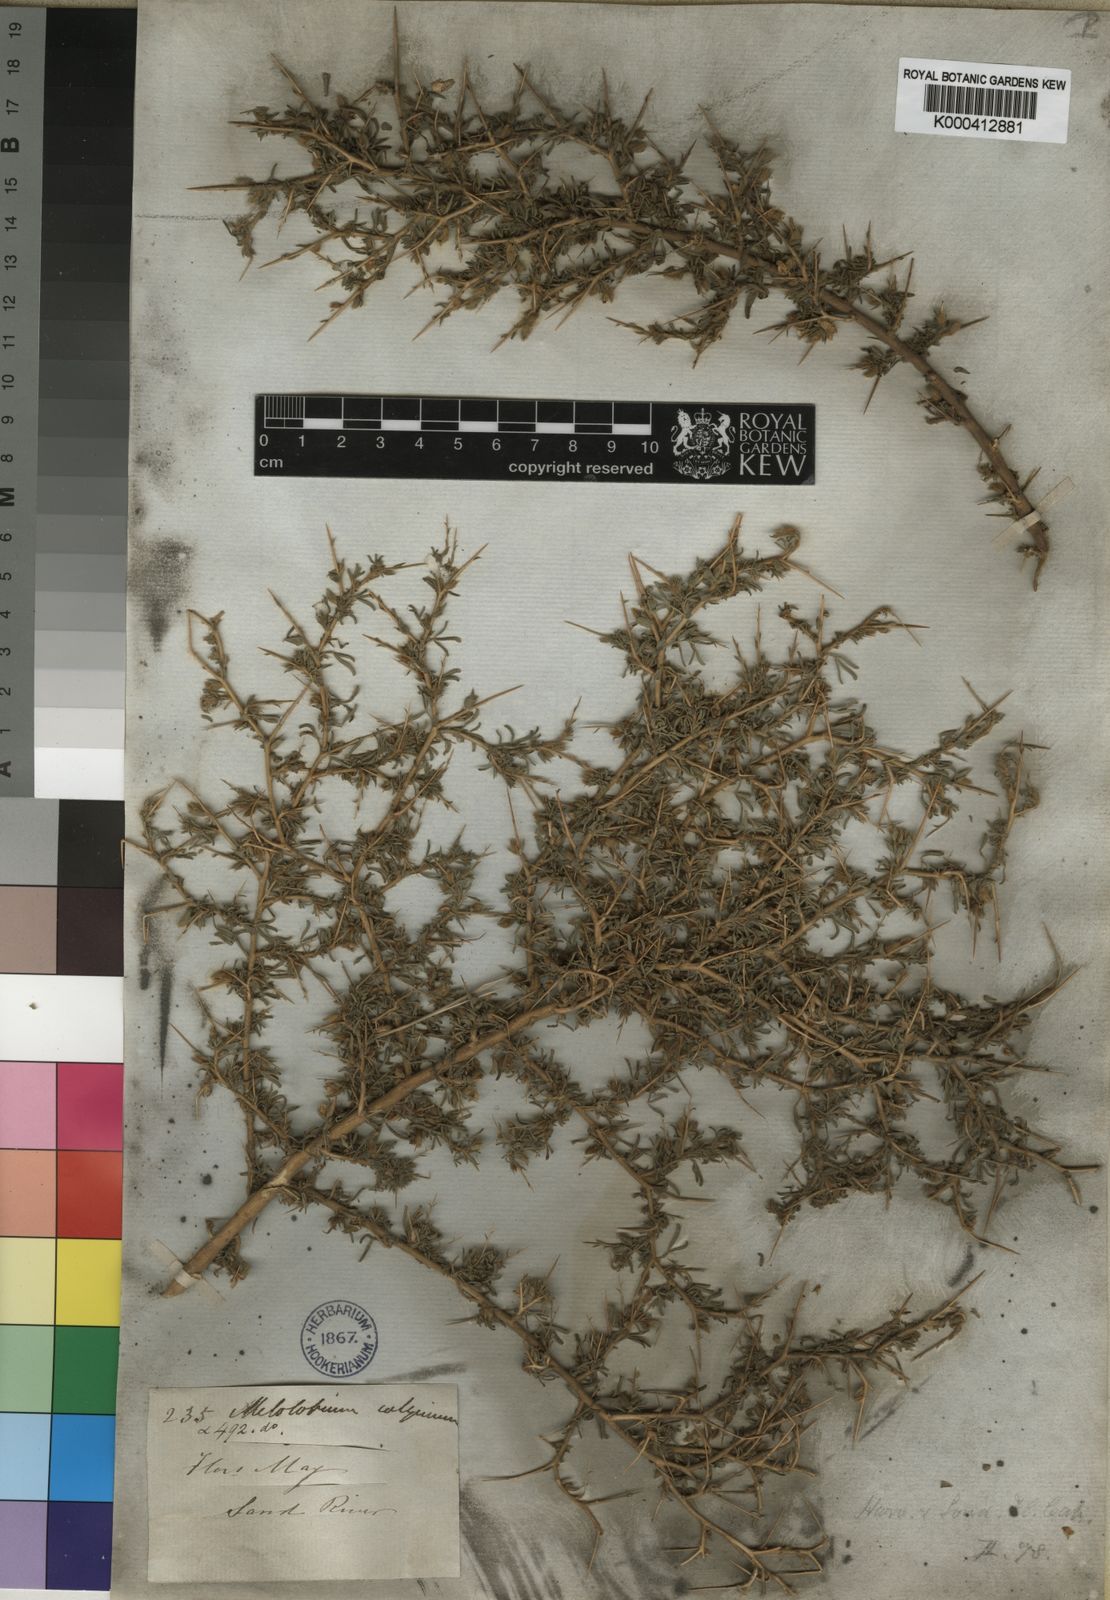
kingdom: Plantae
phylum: Tracheophyta
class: Magnoliopsida
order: Fabales
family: Fabaceae
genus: Melolobium
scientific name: Melolobium calycinum
